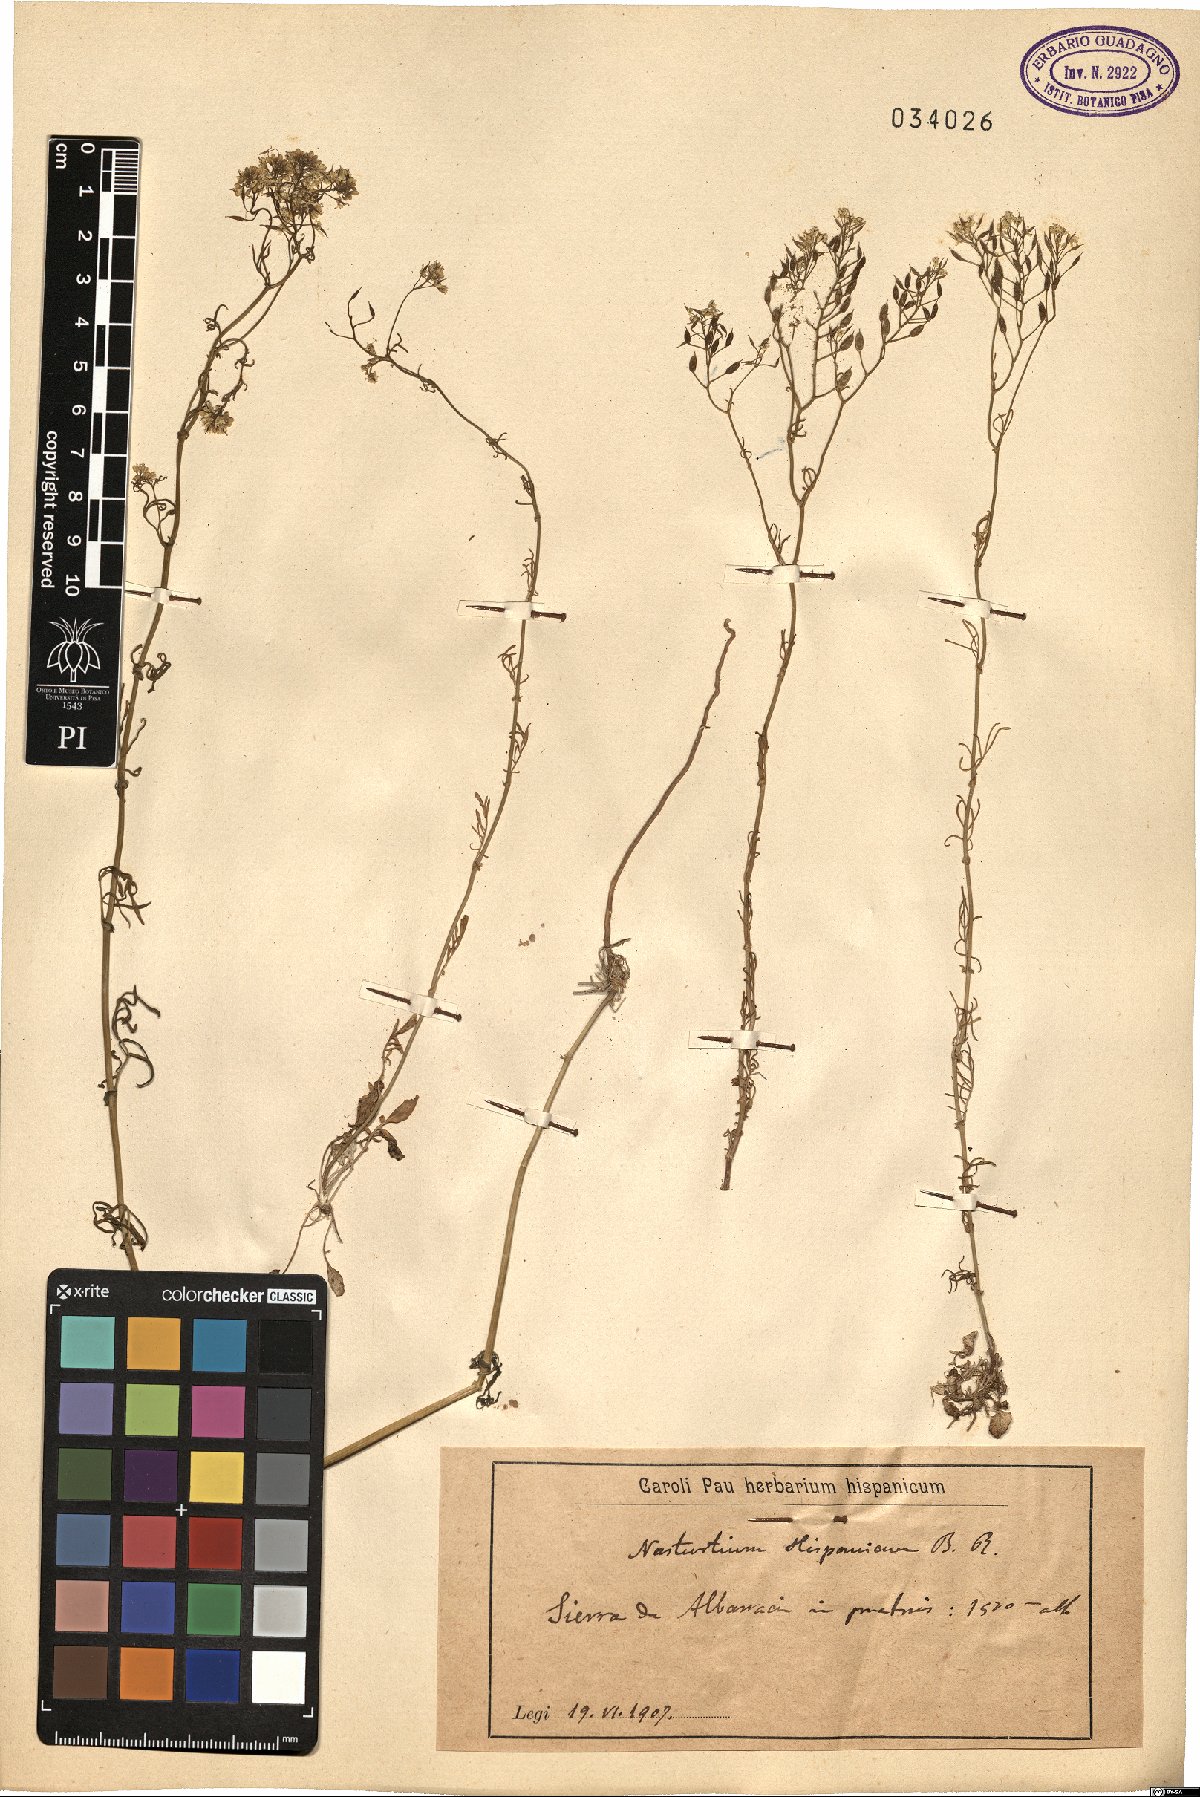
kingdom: Plantae
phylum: Tracheophyta
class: Magnoliopsida
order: Brassicales
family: Brassicaceae
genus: Rorippa
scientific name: Rorippa pyrenaica
